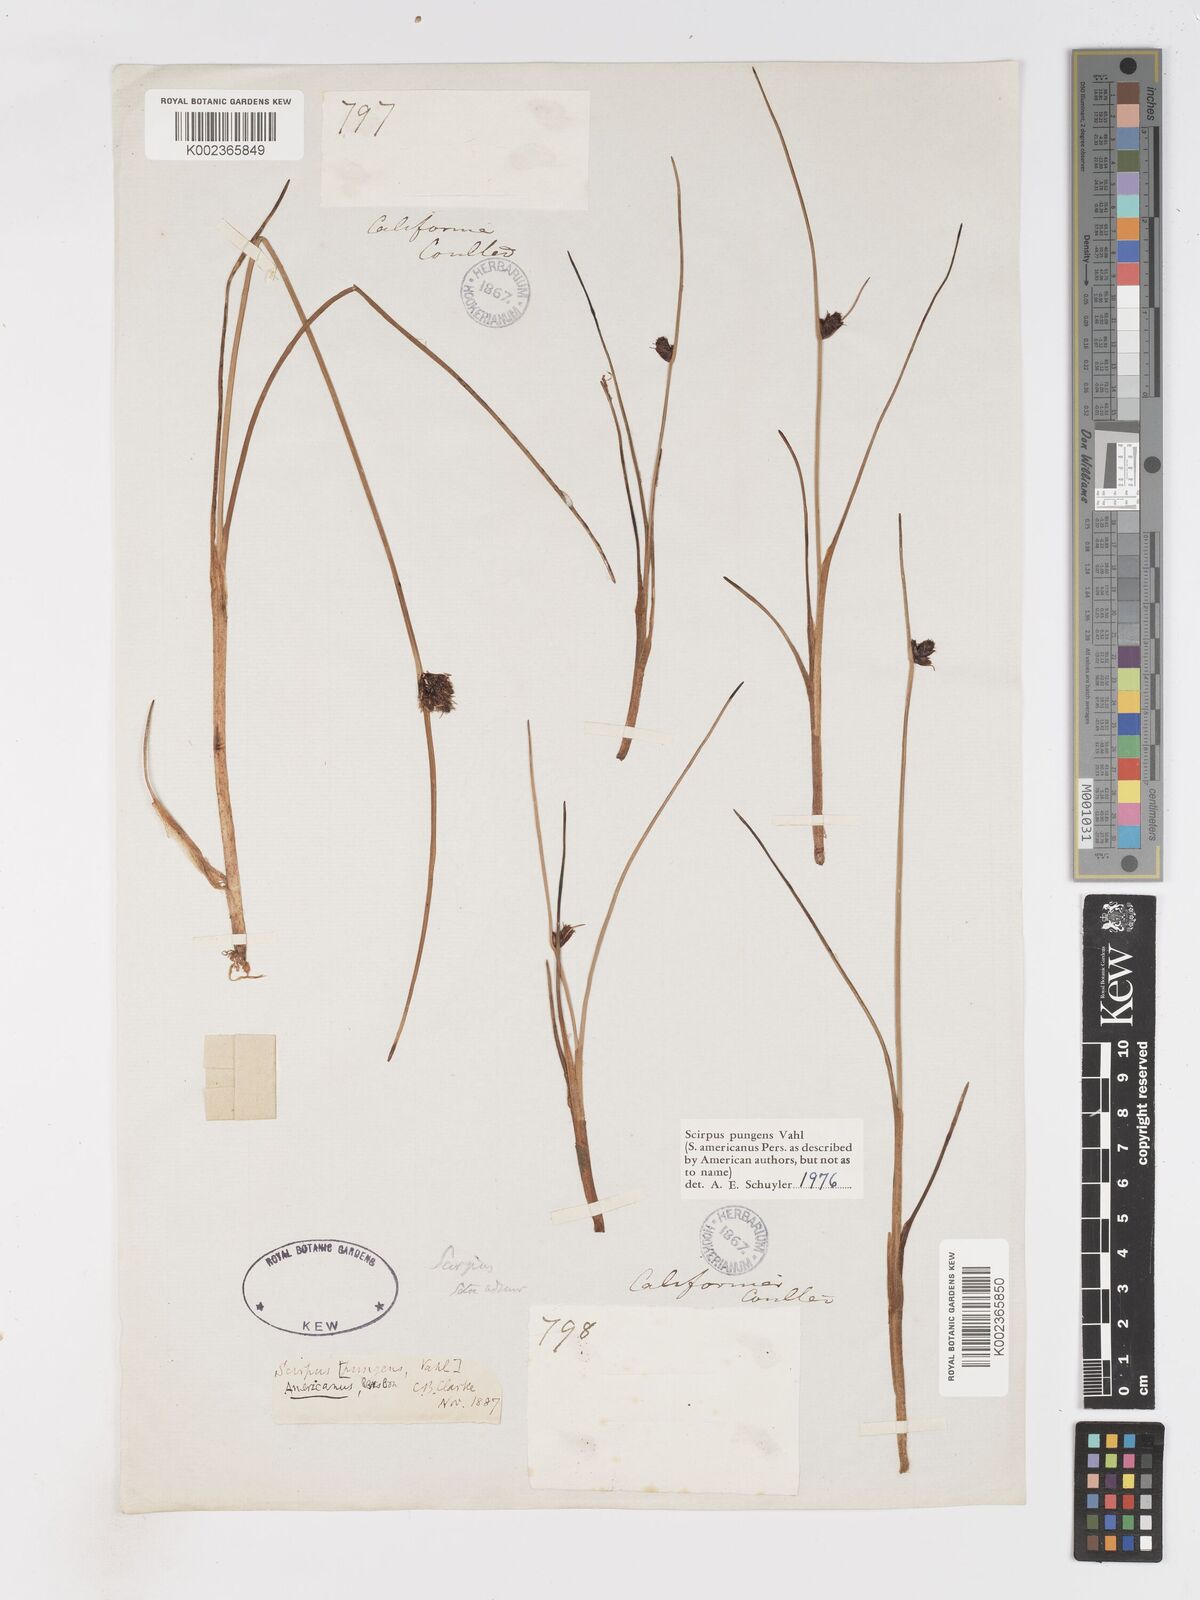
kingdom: Plantae
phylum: Tracheophyta
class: Liliopsida
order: Poales
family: Cyperaceae
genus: Schoenoplectus
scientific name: Schoenoplectus pungens
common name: Sharp club-rush
